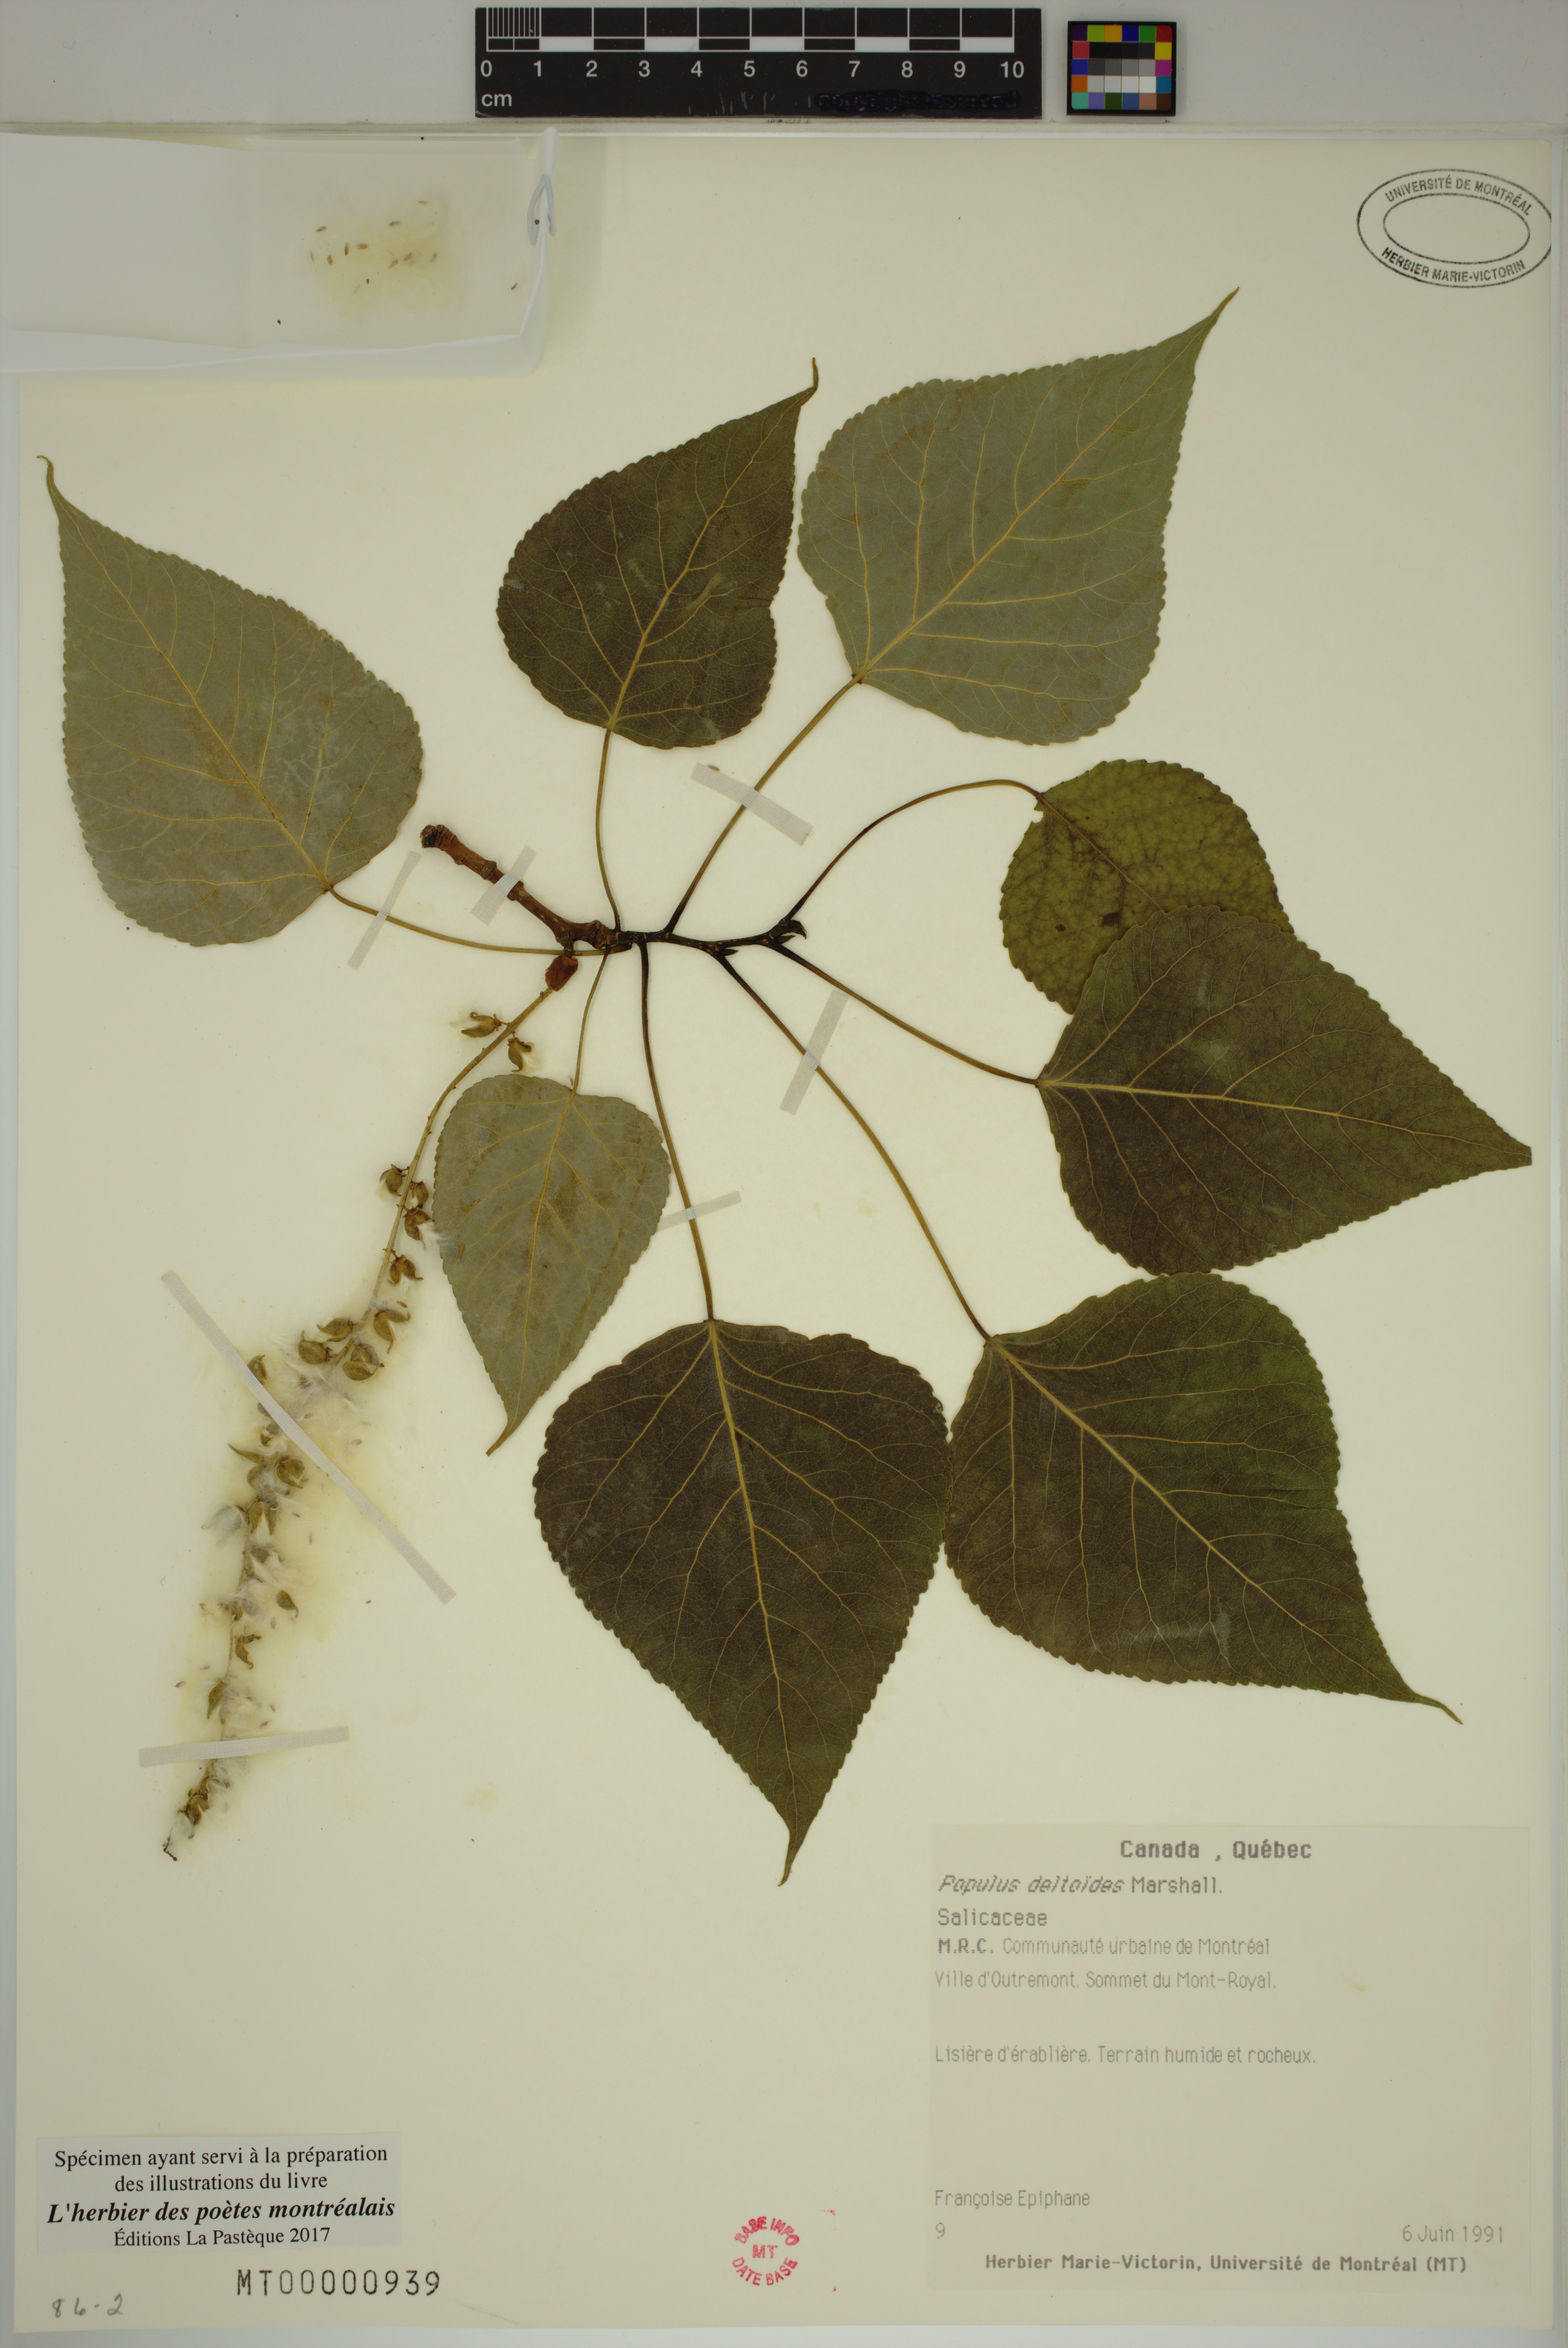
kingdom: Plantae
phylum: Tracheophyta
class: Magnoliopsida
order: Malpighiales
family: Salicaceae
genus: Populus
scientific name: Populus deltoides
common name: Eastern cottonwood
